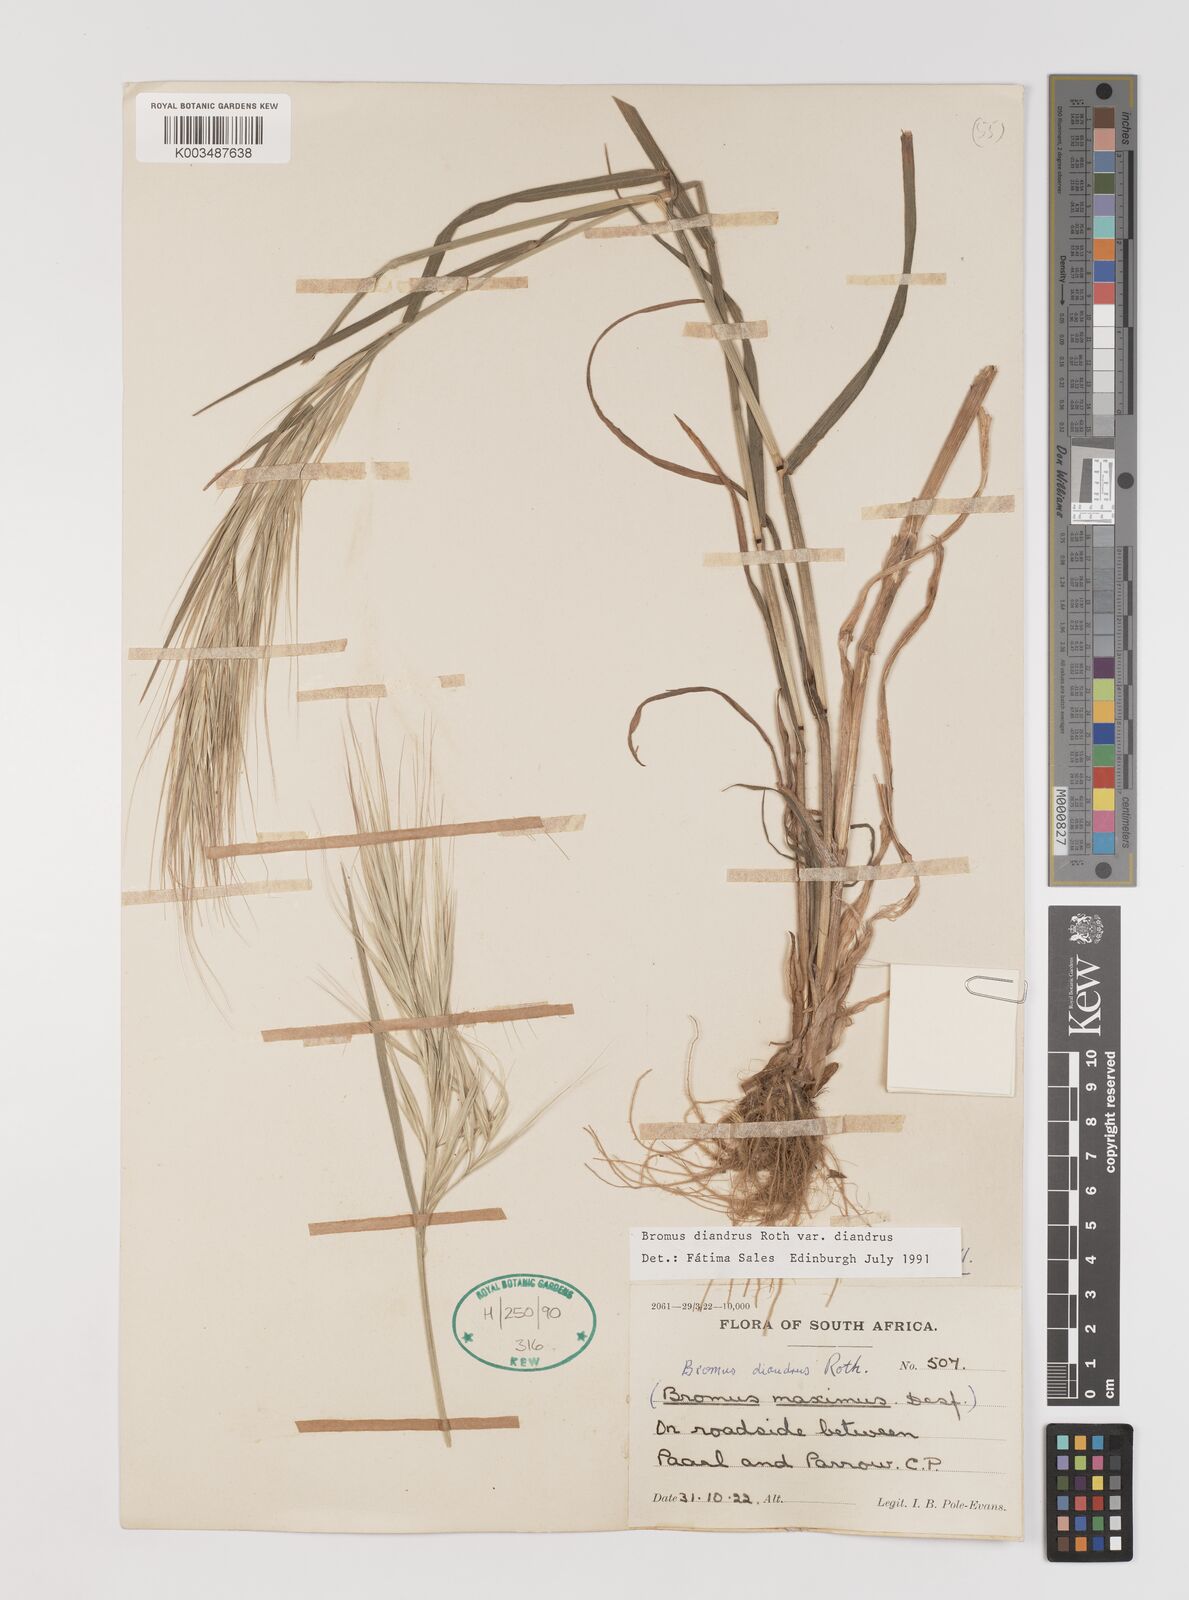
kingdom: Plantae
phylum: Tracheophyta
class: Liliopsida
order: Poales
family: Poaceae
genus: Bromus
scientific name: Bromus diandrus
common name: Ripgut brome
